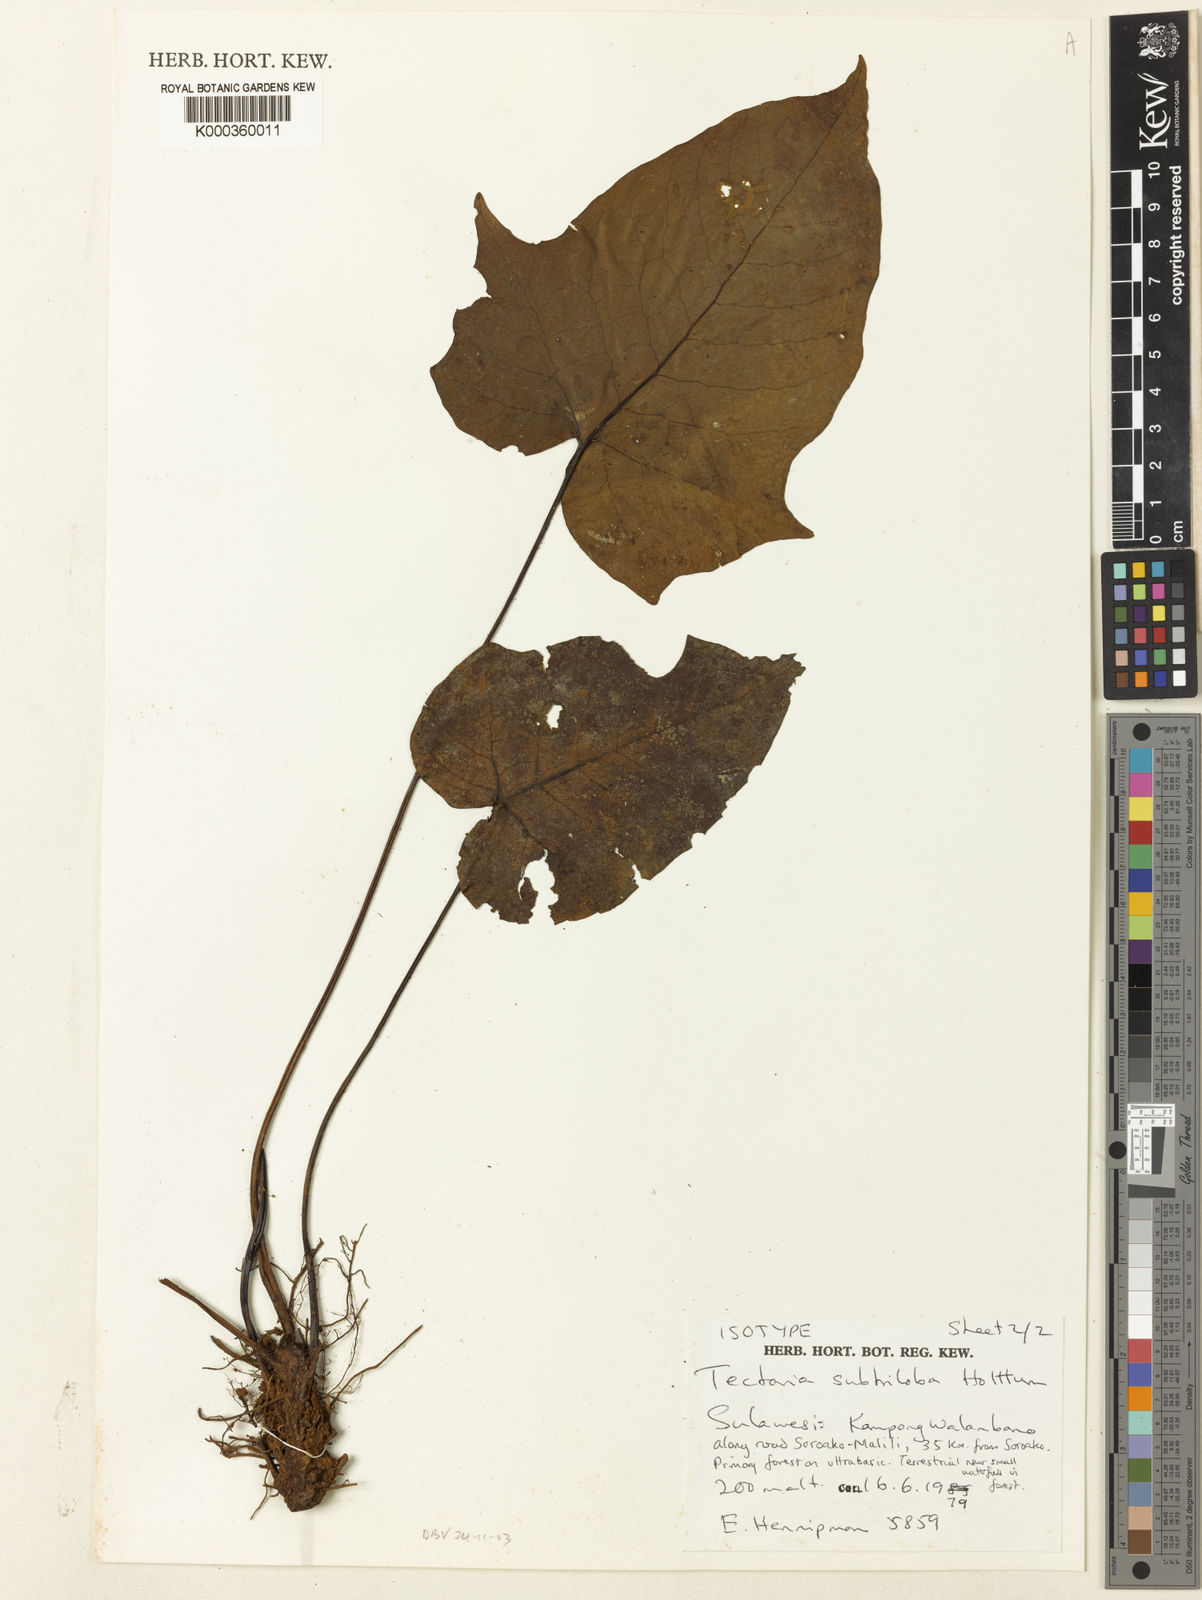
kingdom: Plantae
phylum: Tracheophyta
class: Polypodiopsida
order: Polypodiales
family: Tectariaceae
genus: Tectaria
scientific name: Tectaria subtriloba
